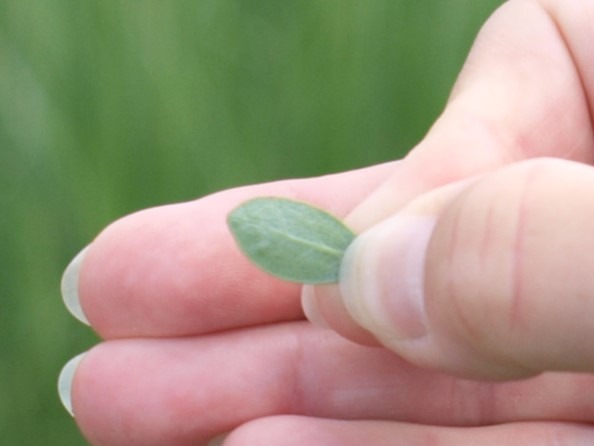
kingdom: Plantae
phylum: Tracheophyta
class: Magnoliopsida
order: Ericales
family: Ericaceae
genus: Vaccinium
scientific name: Vaccinium uliginosum
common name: Mose-bølle
